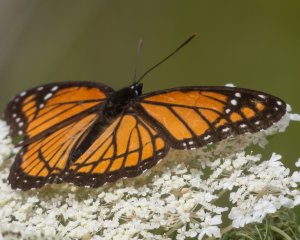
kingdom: Animalia
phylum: Arthropoda
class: Insecta
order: Lepidoptera
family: Nymphalidae
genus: Limenitis
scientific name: Limenitis archippus
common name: Viceroy
